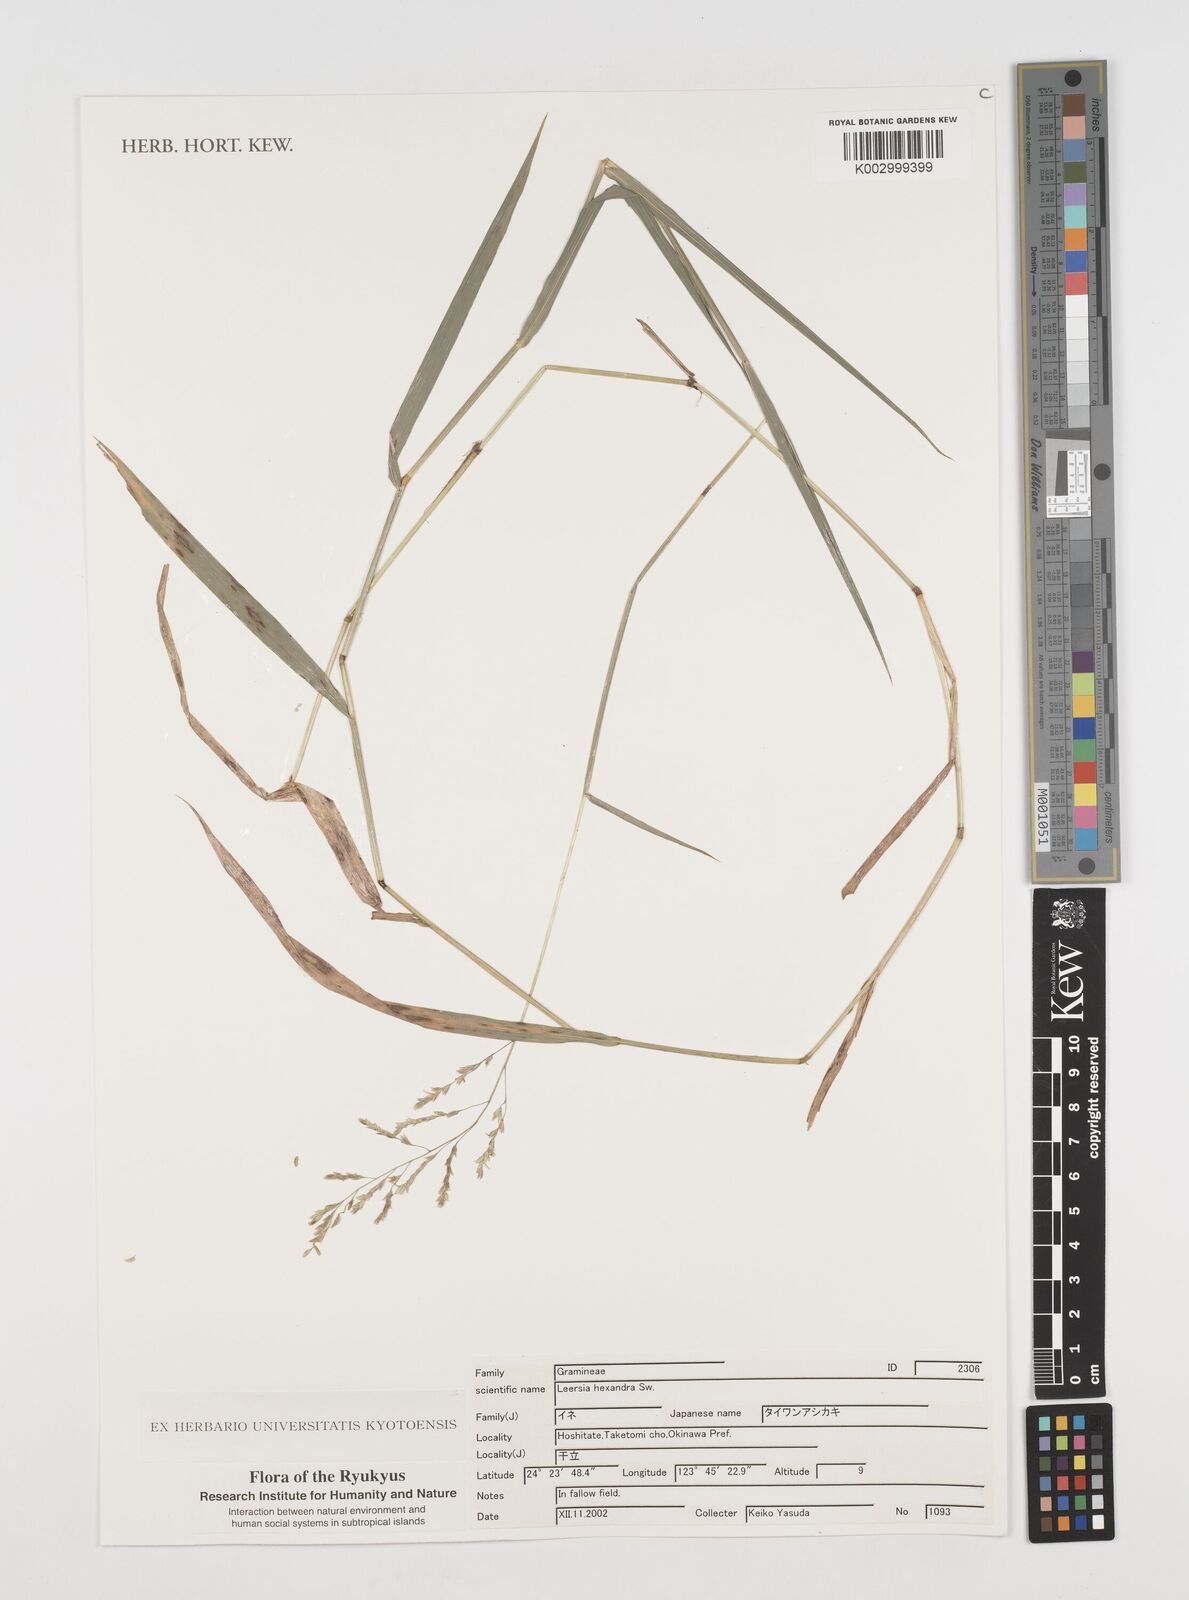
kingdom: Plantae
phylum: Tracheophyta
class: Liliopsida
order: Poales
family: Poaceae
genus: Leersia
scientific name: Leersia hexandra
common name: Southern cut grass
